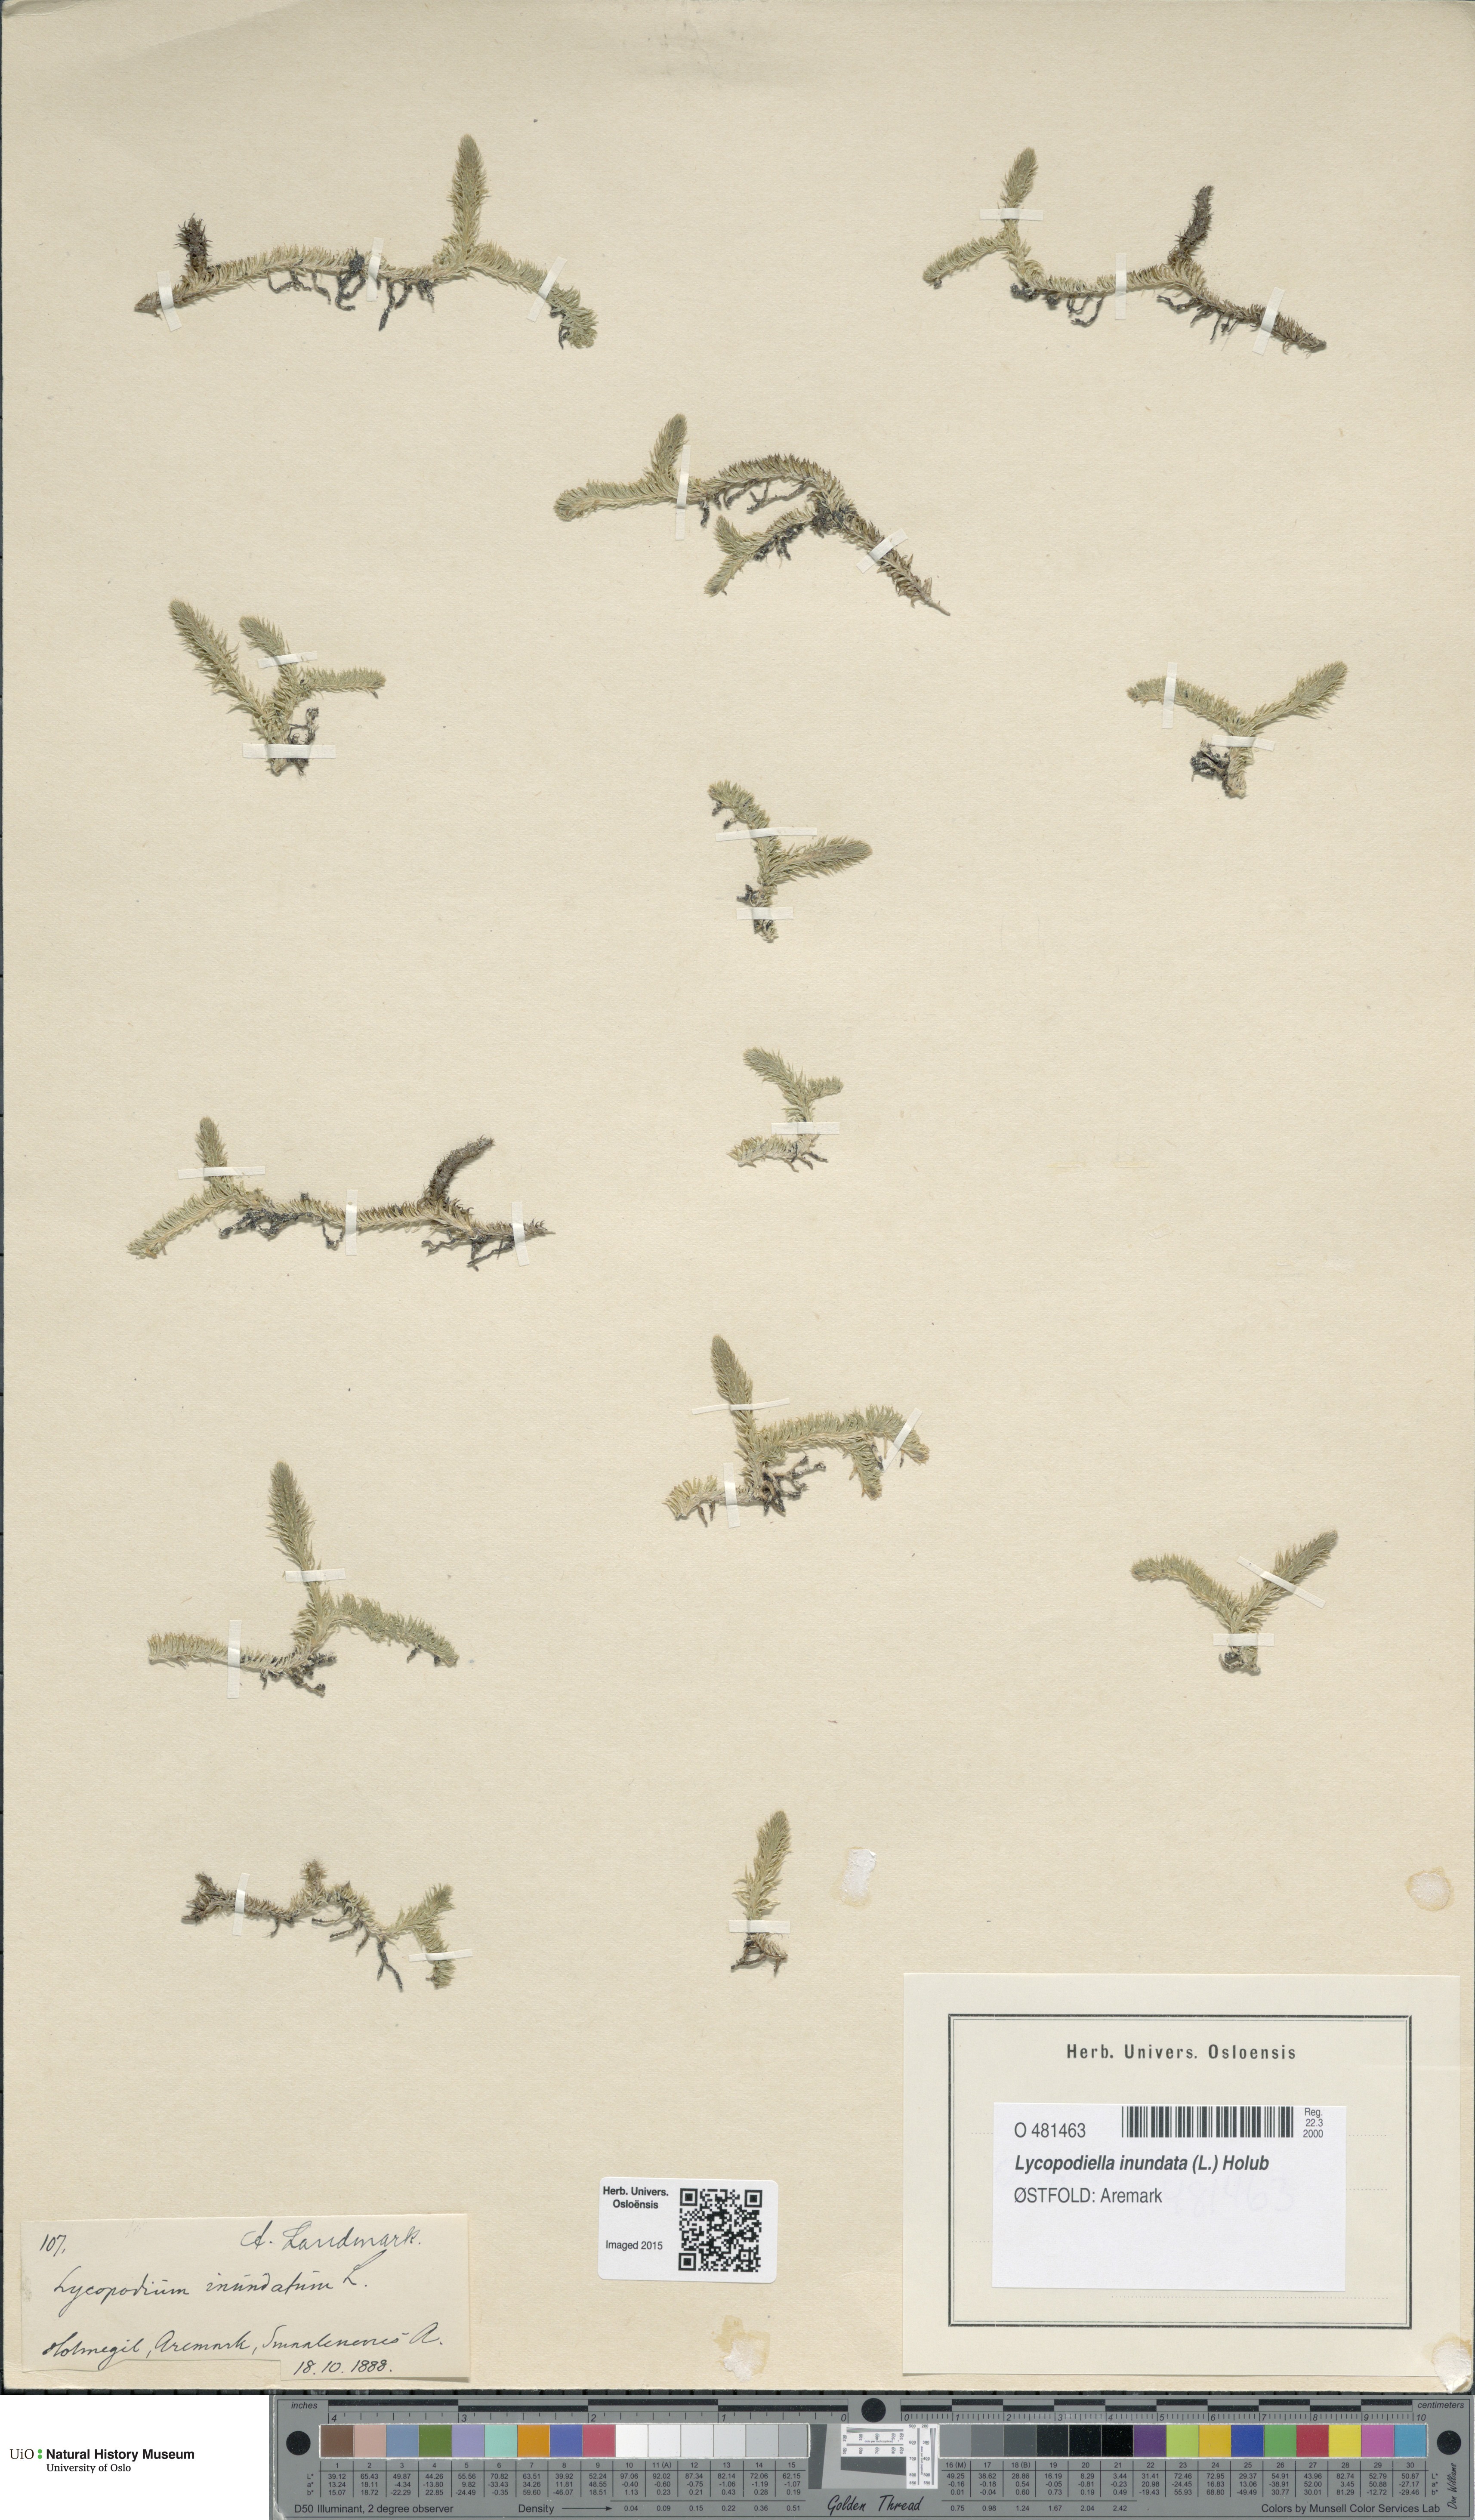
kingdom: Plantae
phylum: Tracheophyta
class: Lycopodiopsida
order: Lycopodiales
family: Lycopodiaceae
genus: Lycopodiella
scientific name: Lycopodiella inundata
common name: Marsh clubmoss
